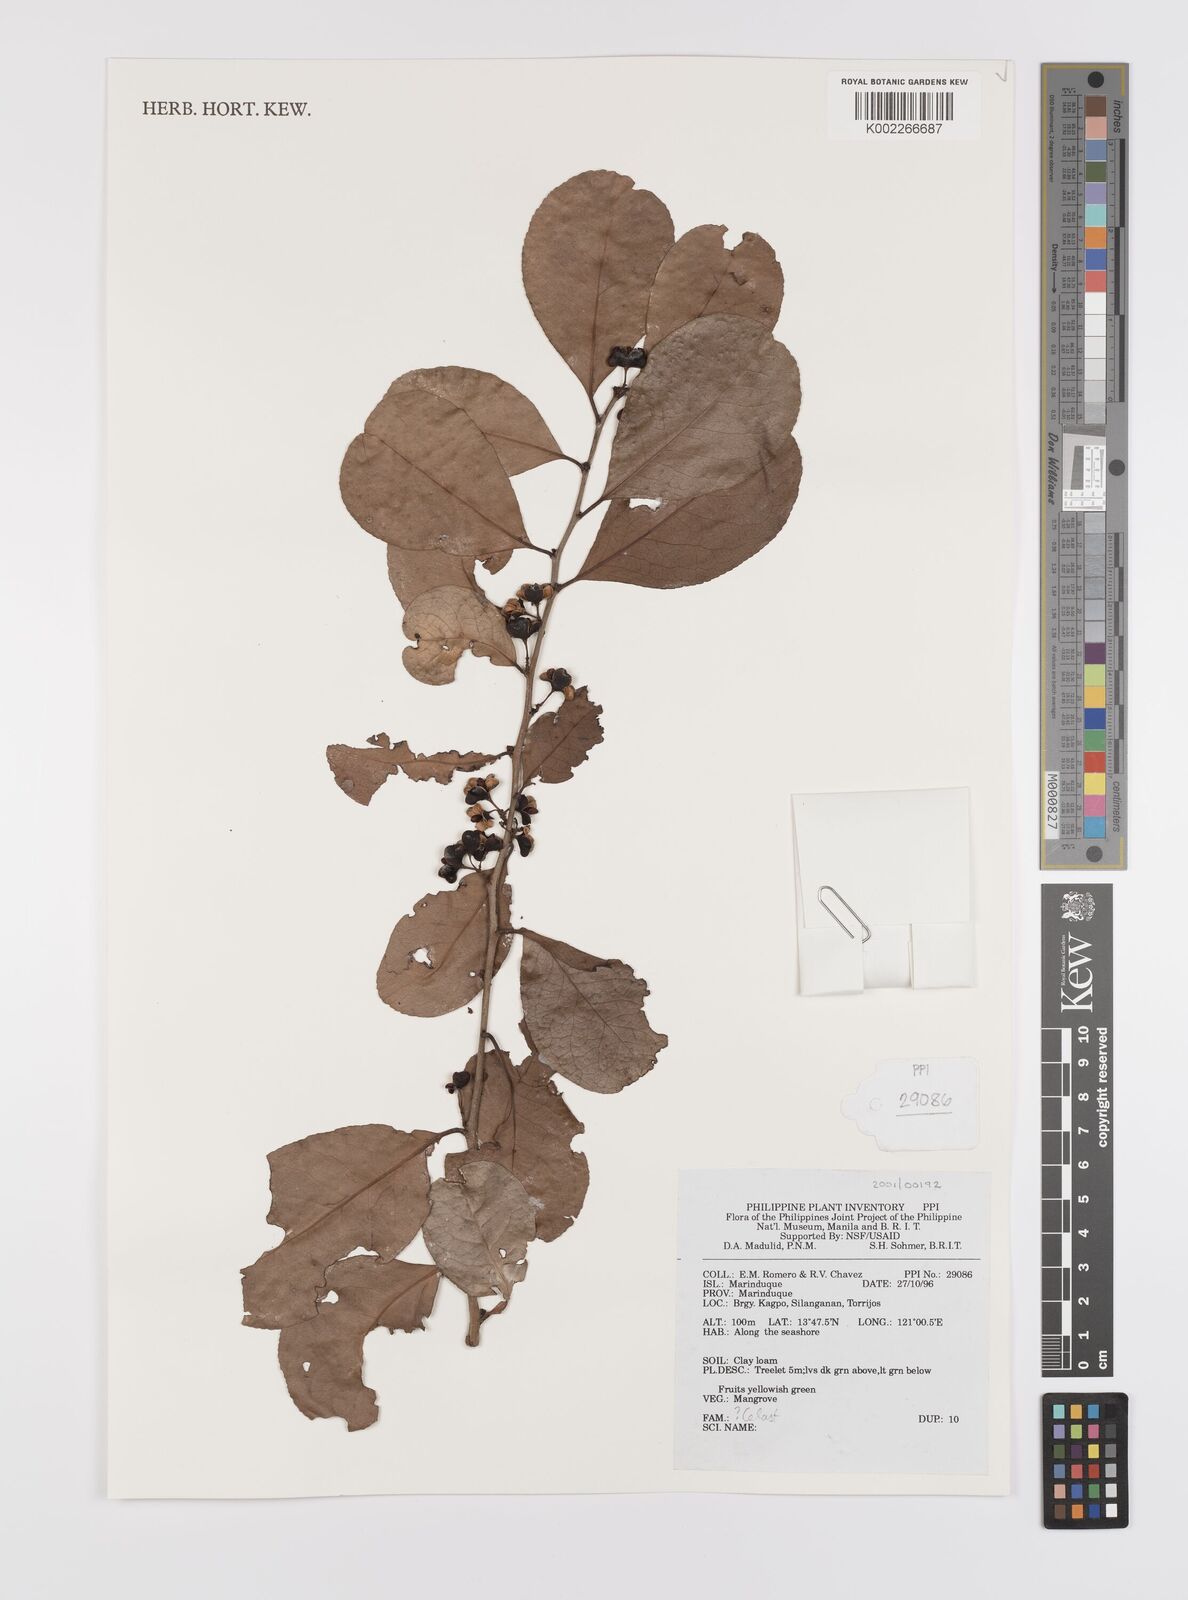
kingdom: Plantae
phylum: Tracheophyta
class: Magnoliopsida
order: Celastrales
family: Celastraceae
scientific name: Celastraceae
